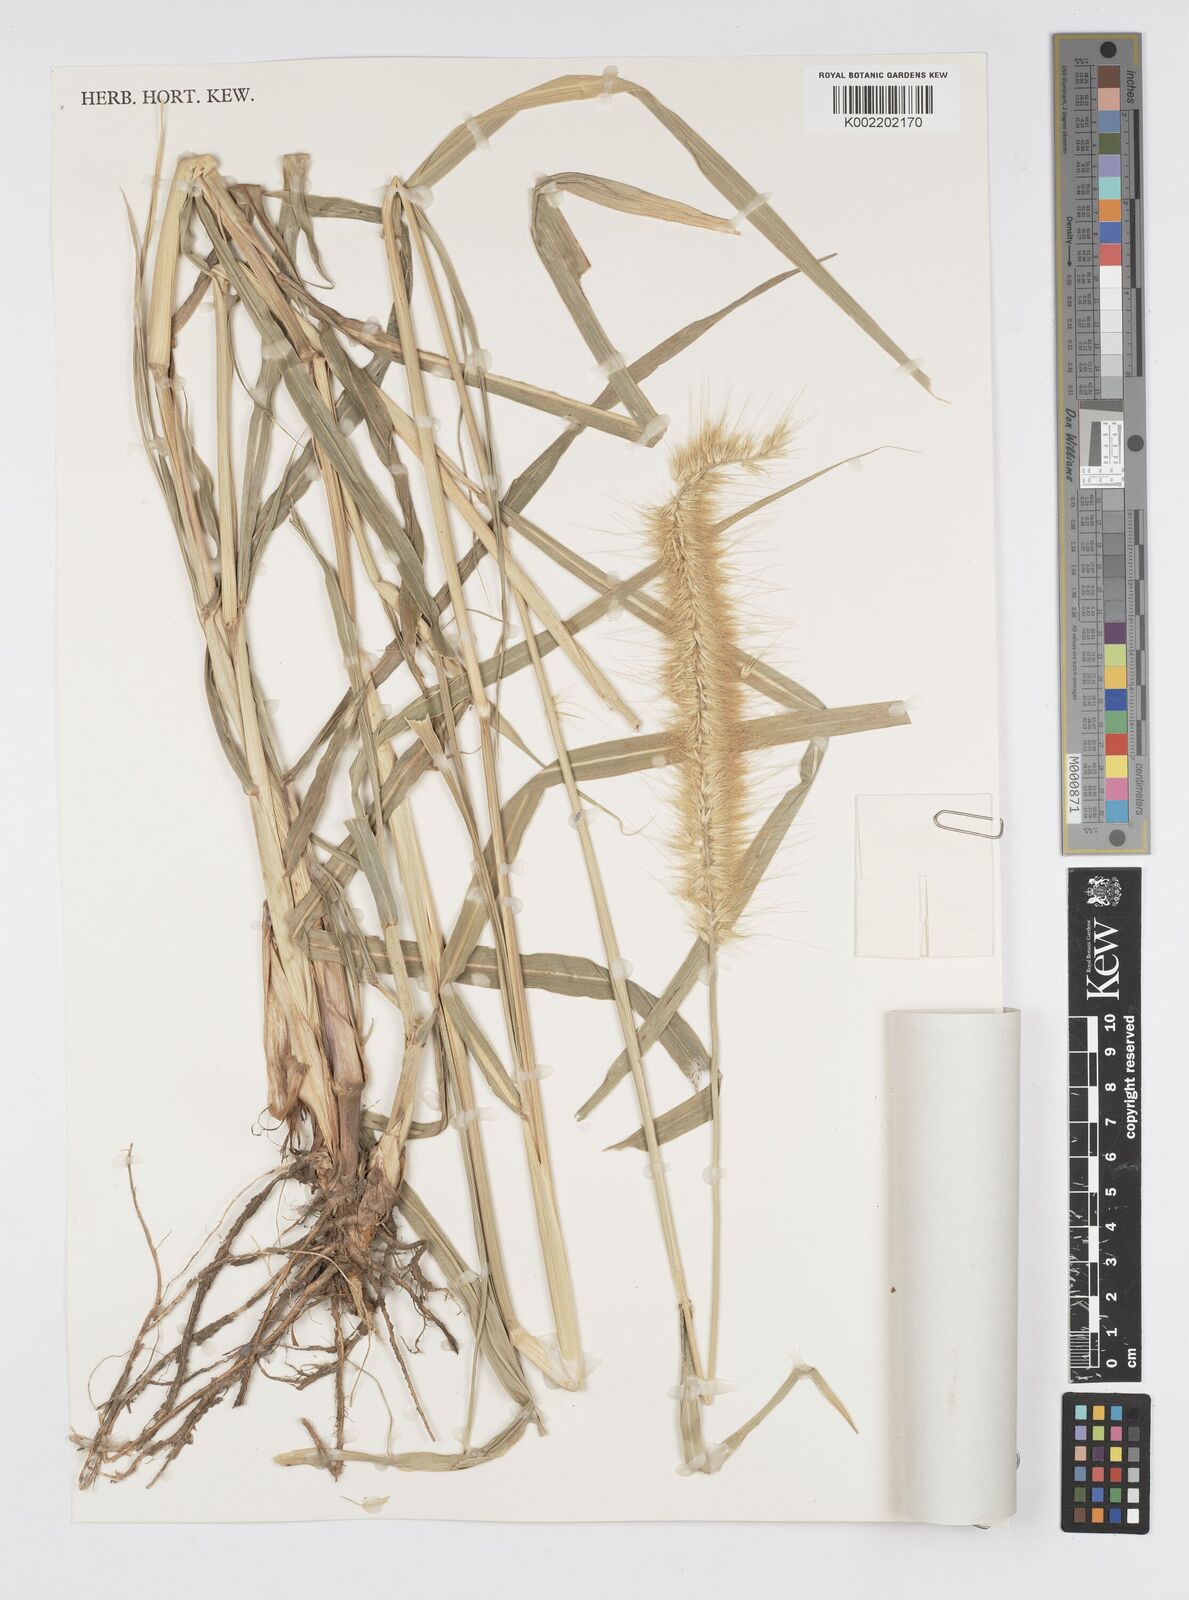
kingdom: Plantae
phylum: Tracheophyta
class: Liliopsida
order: Poales
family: Poaceae
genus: Cenchrus
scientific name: Cenchrus purpureus
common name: Elephant grass
